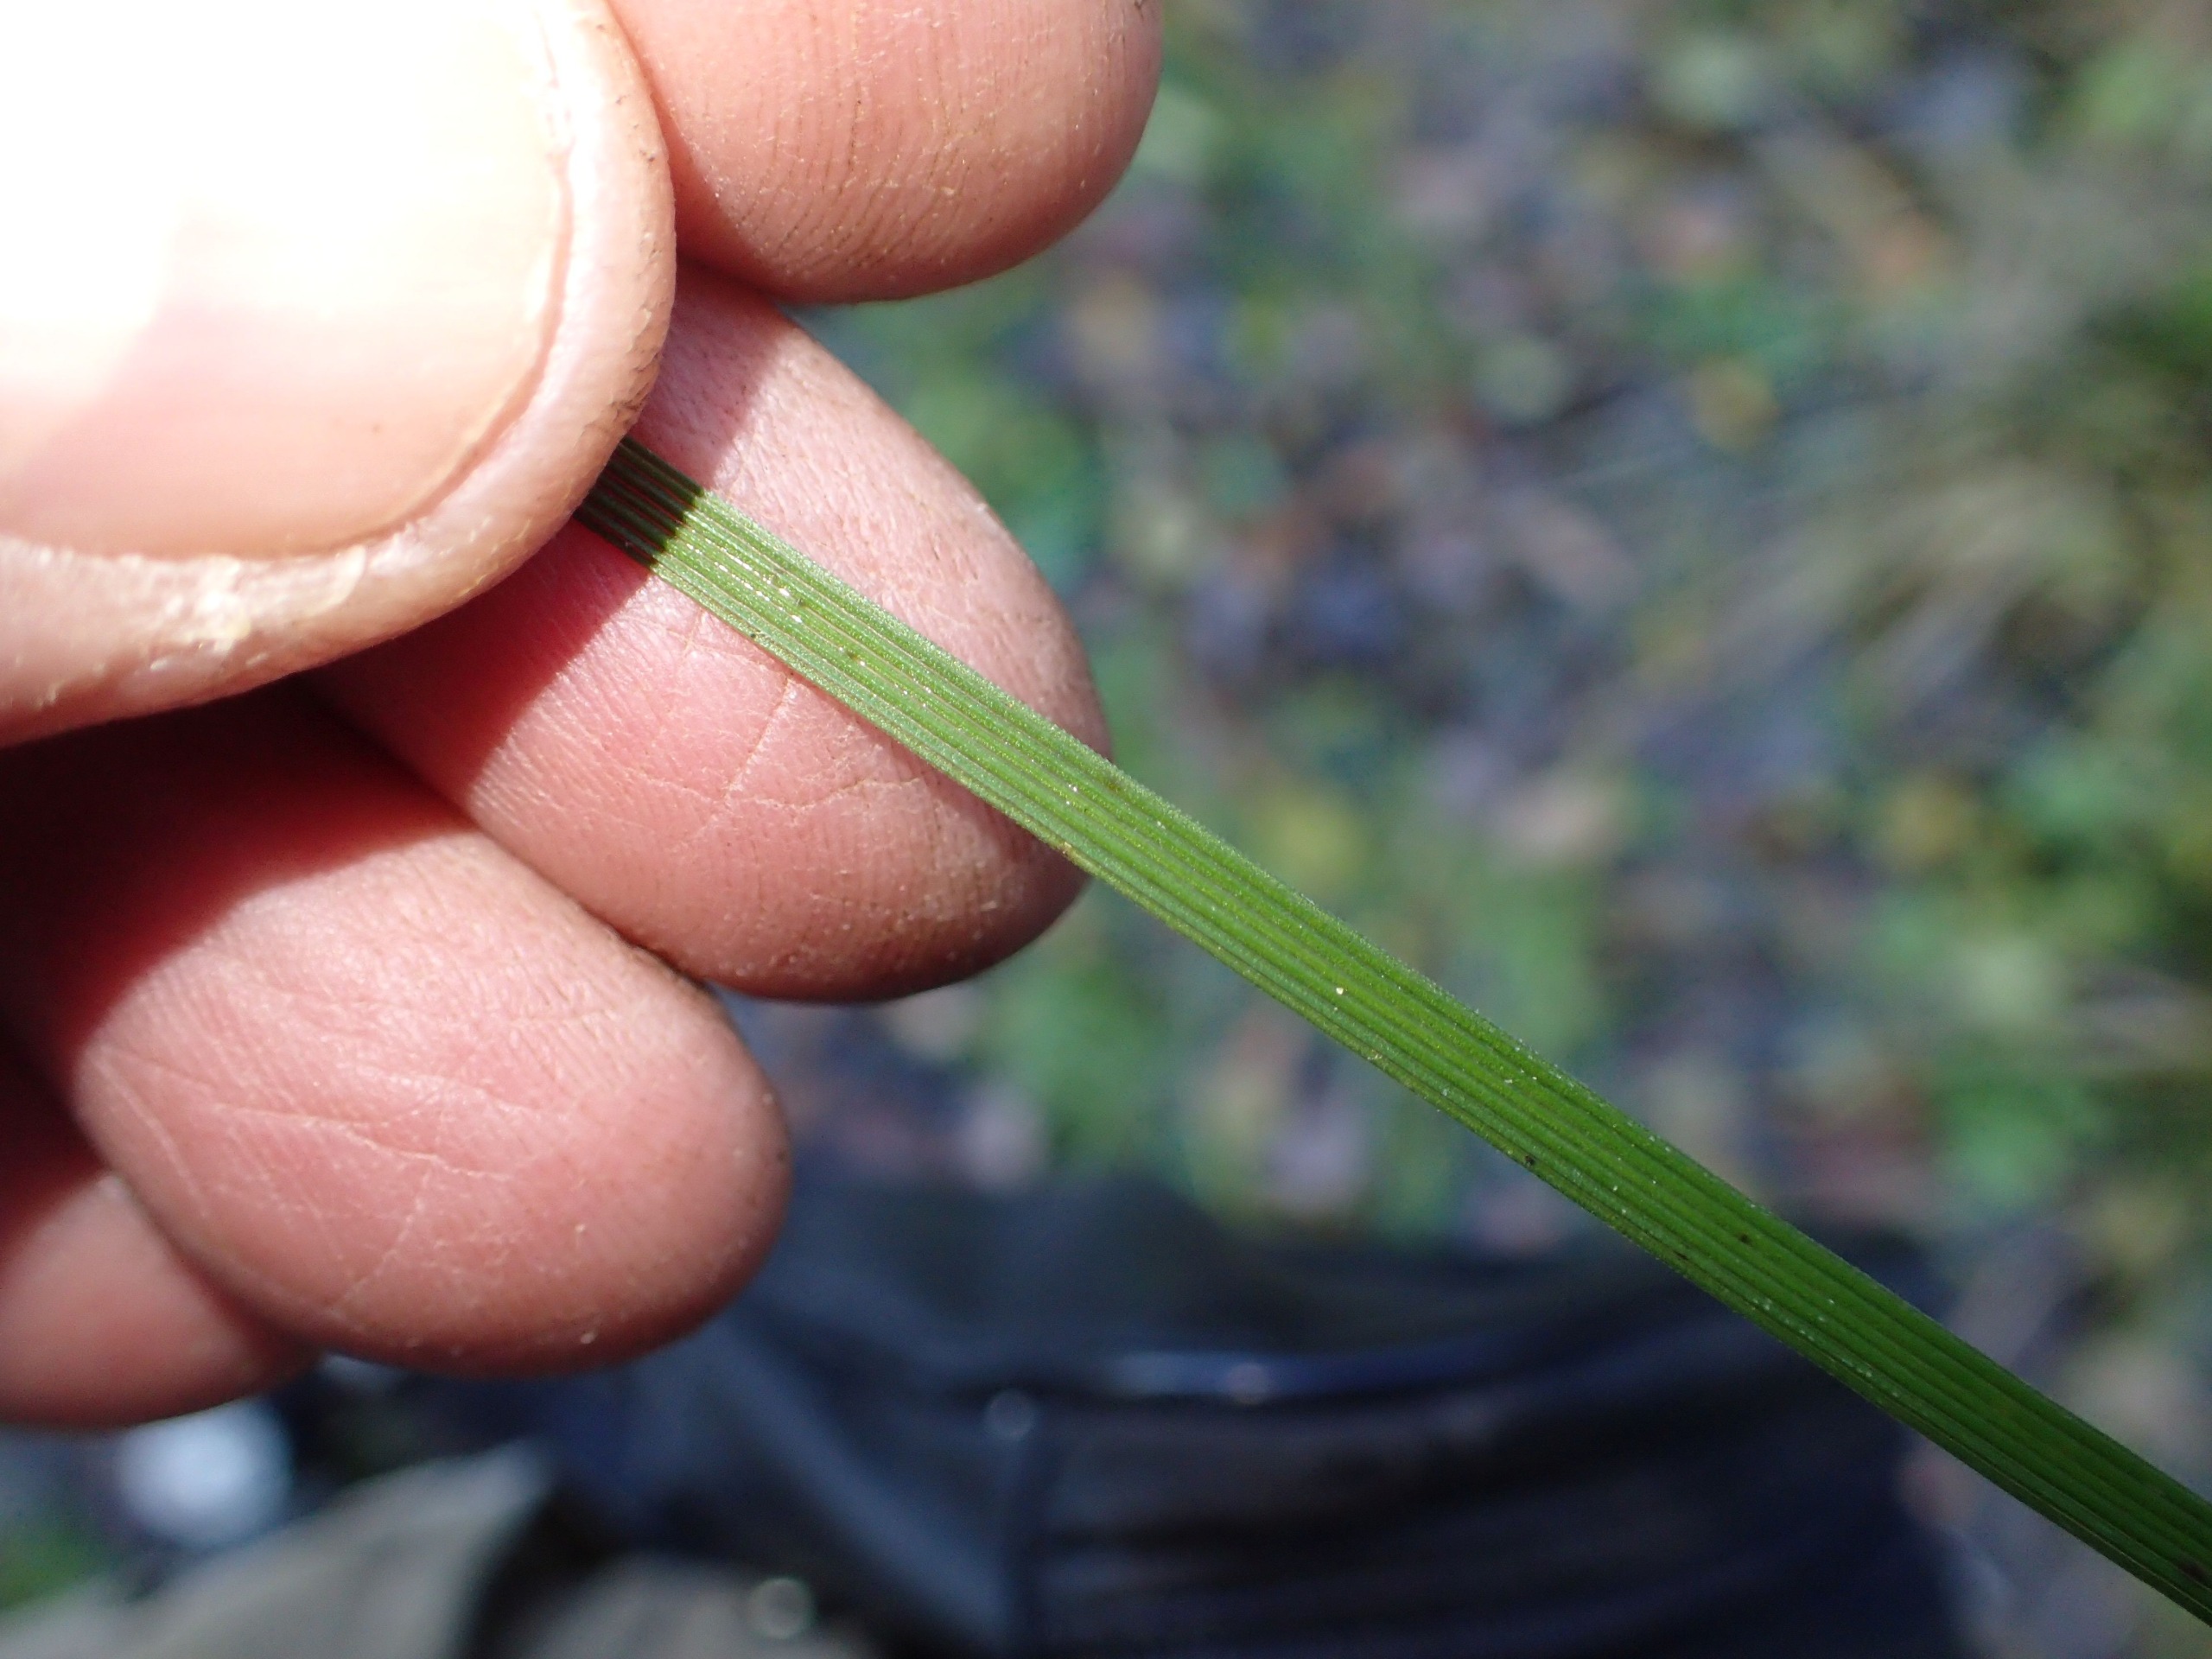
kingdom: Plantae
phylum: Tracheophyta
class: Liliopsida
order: Poales
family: Poaceae
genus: Deschampsia
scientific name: Deschampsia cespitosa
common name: Mose-bunke
